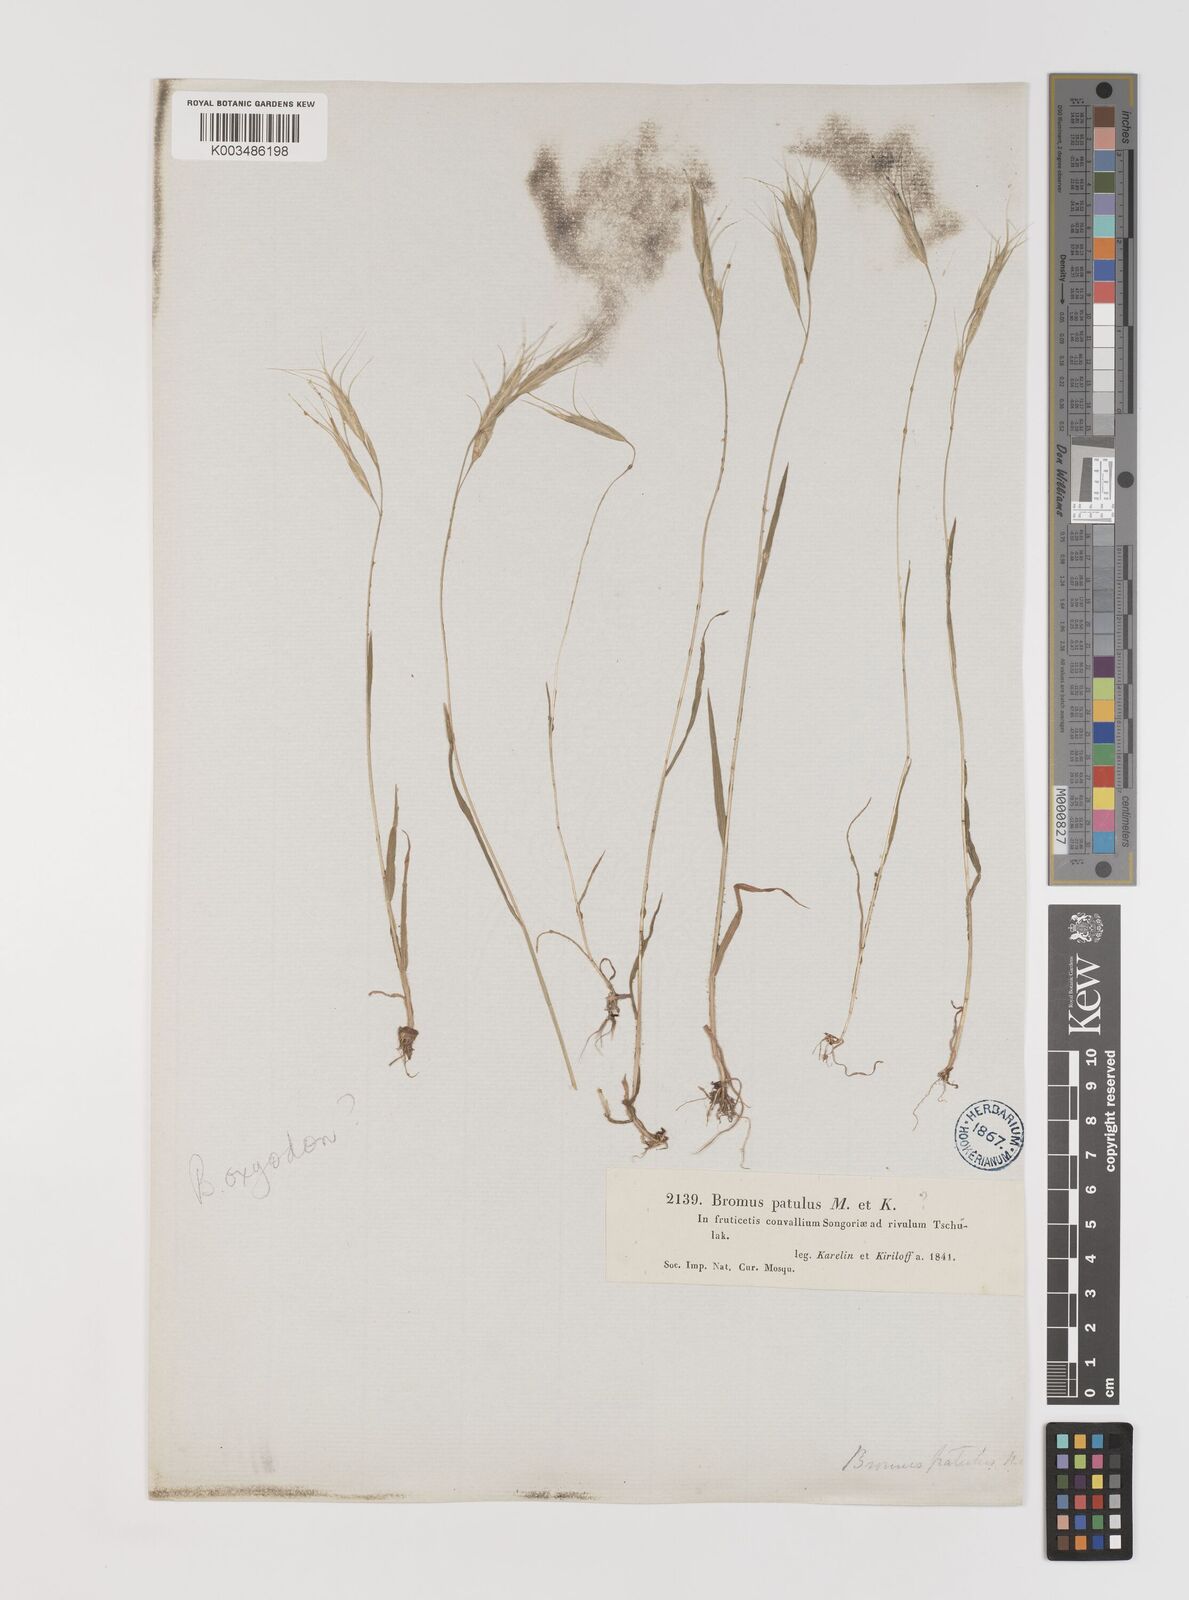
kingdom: Plantae
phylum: Tracheophyta
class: Liliopsida
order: Poales
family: Poaceae
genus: Bromus
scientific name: Bromus oxyodon
